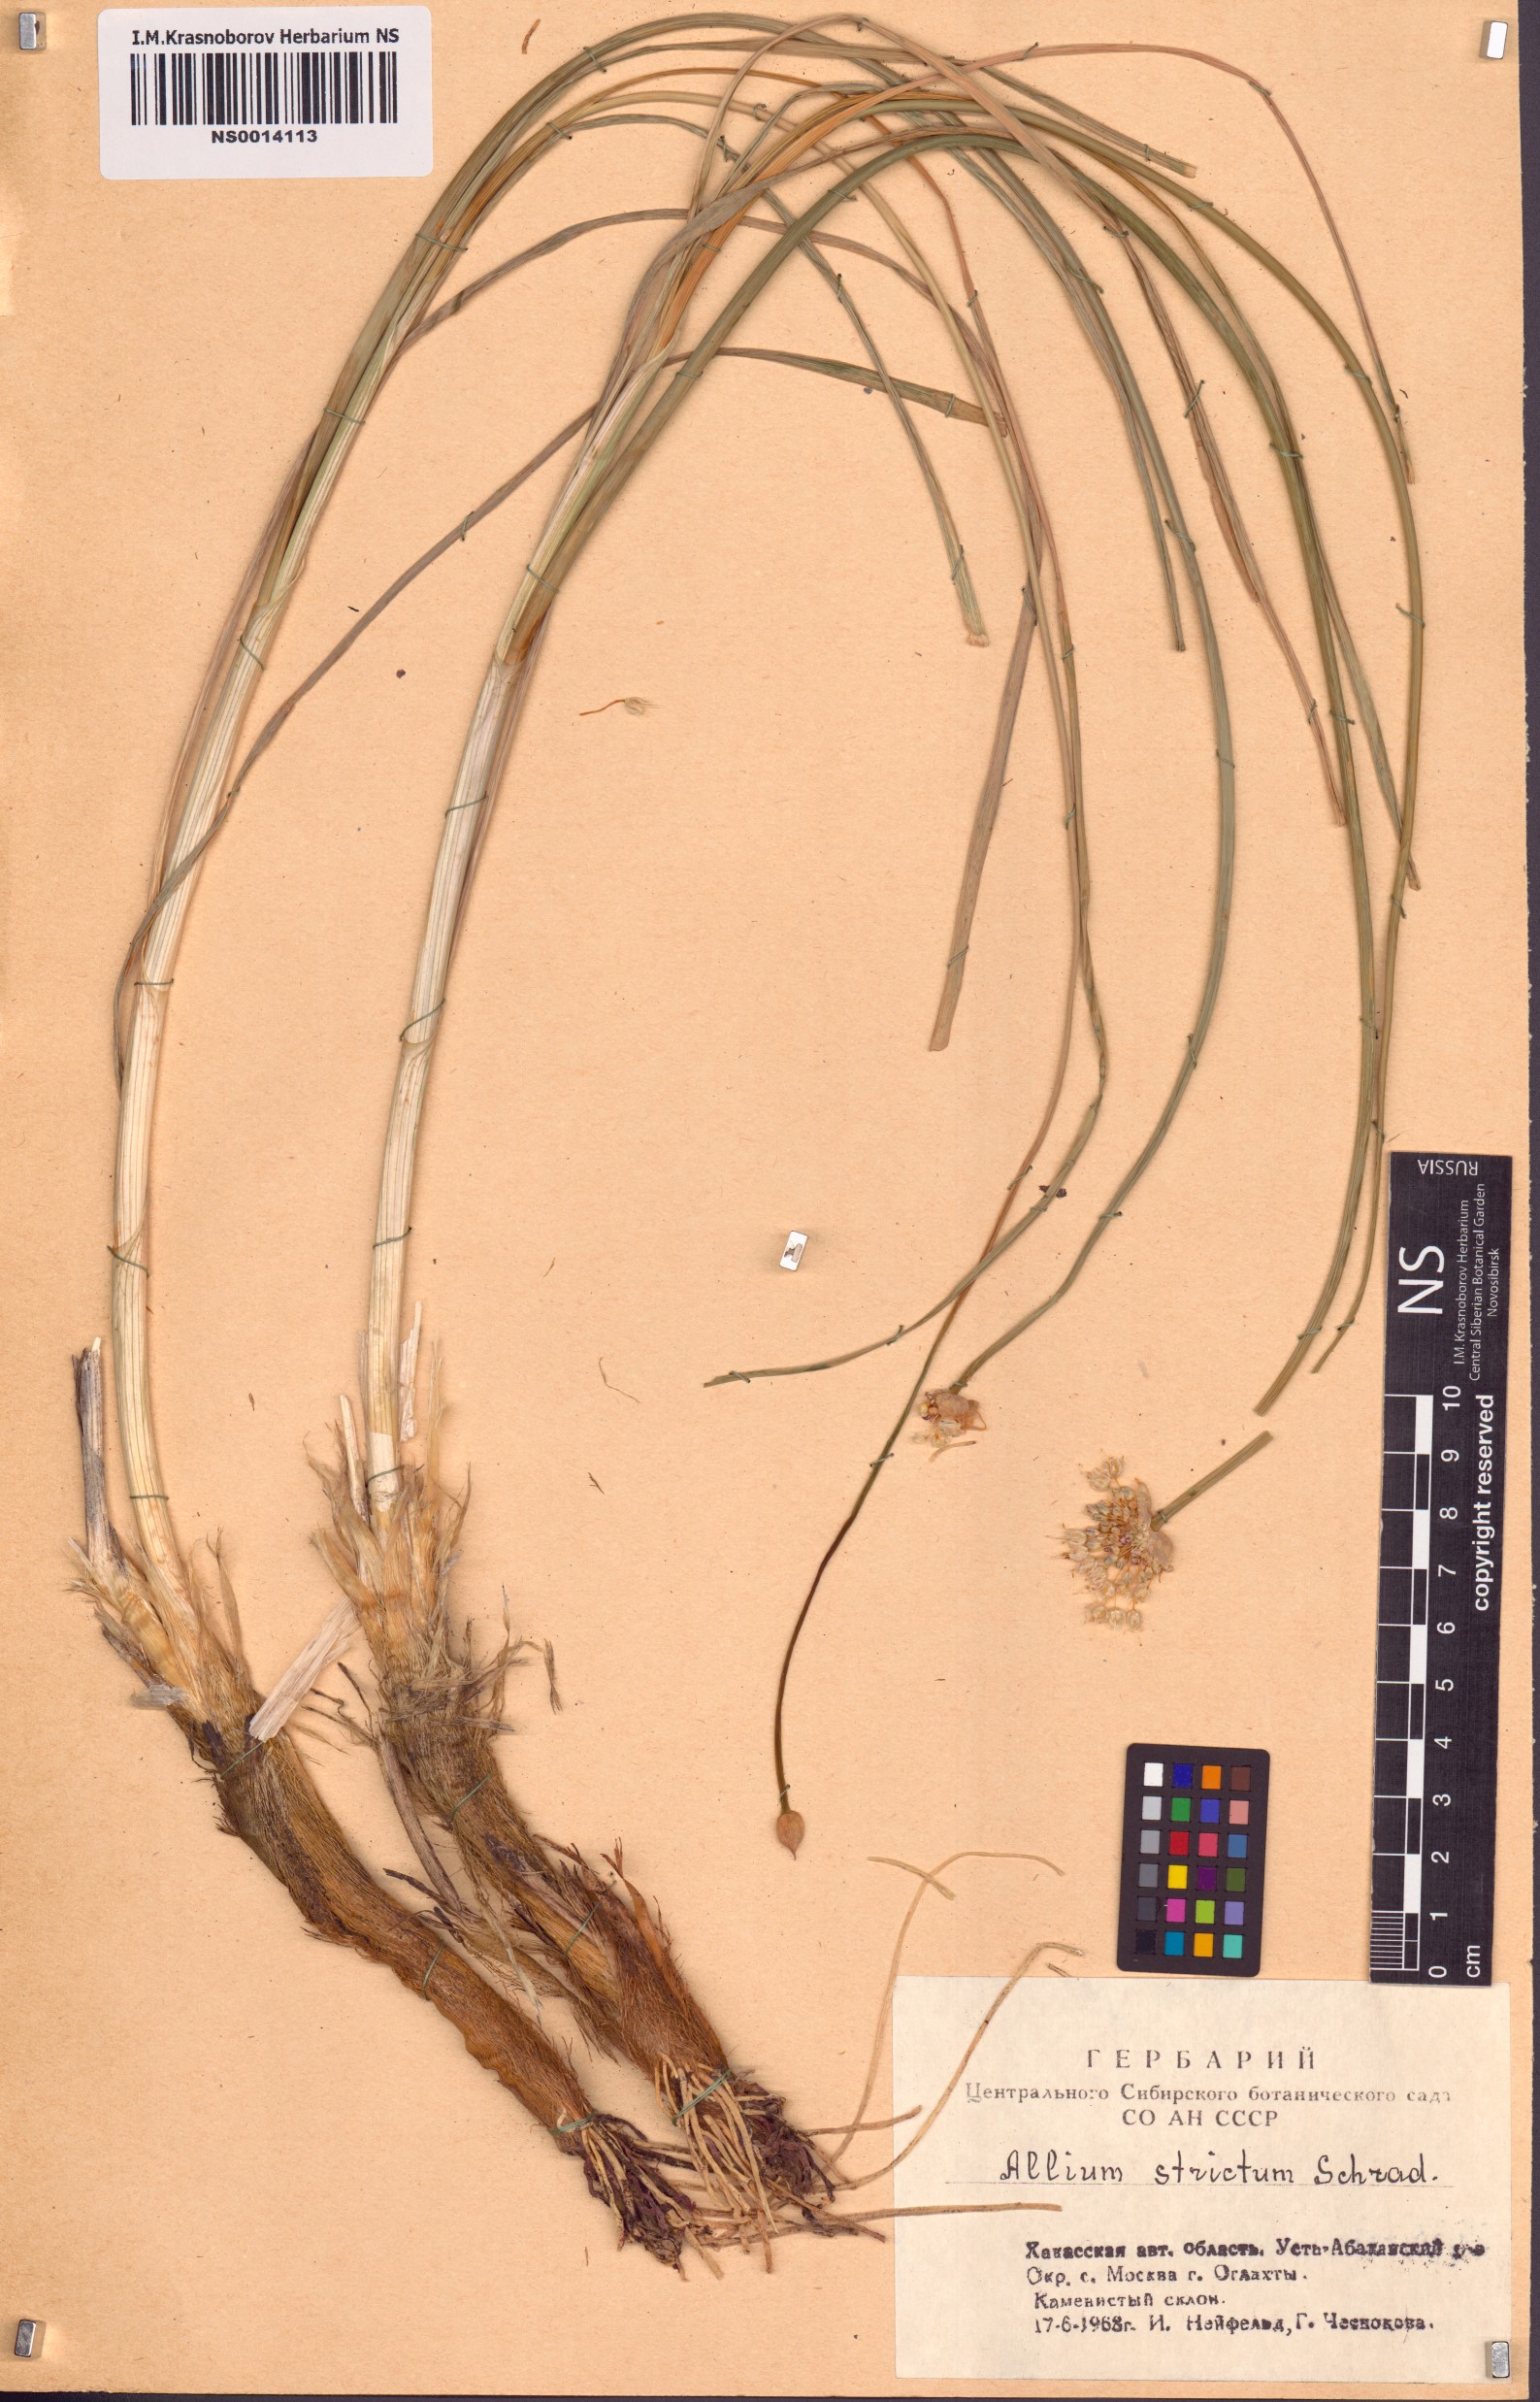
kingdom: Plantae
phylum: Tracheophyta
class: Liliopsida
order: Asparagales
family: Amaryllidaceae
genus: Allium
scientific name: Allium strictum
